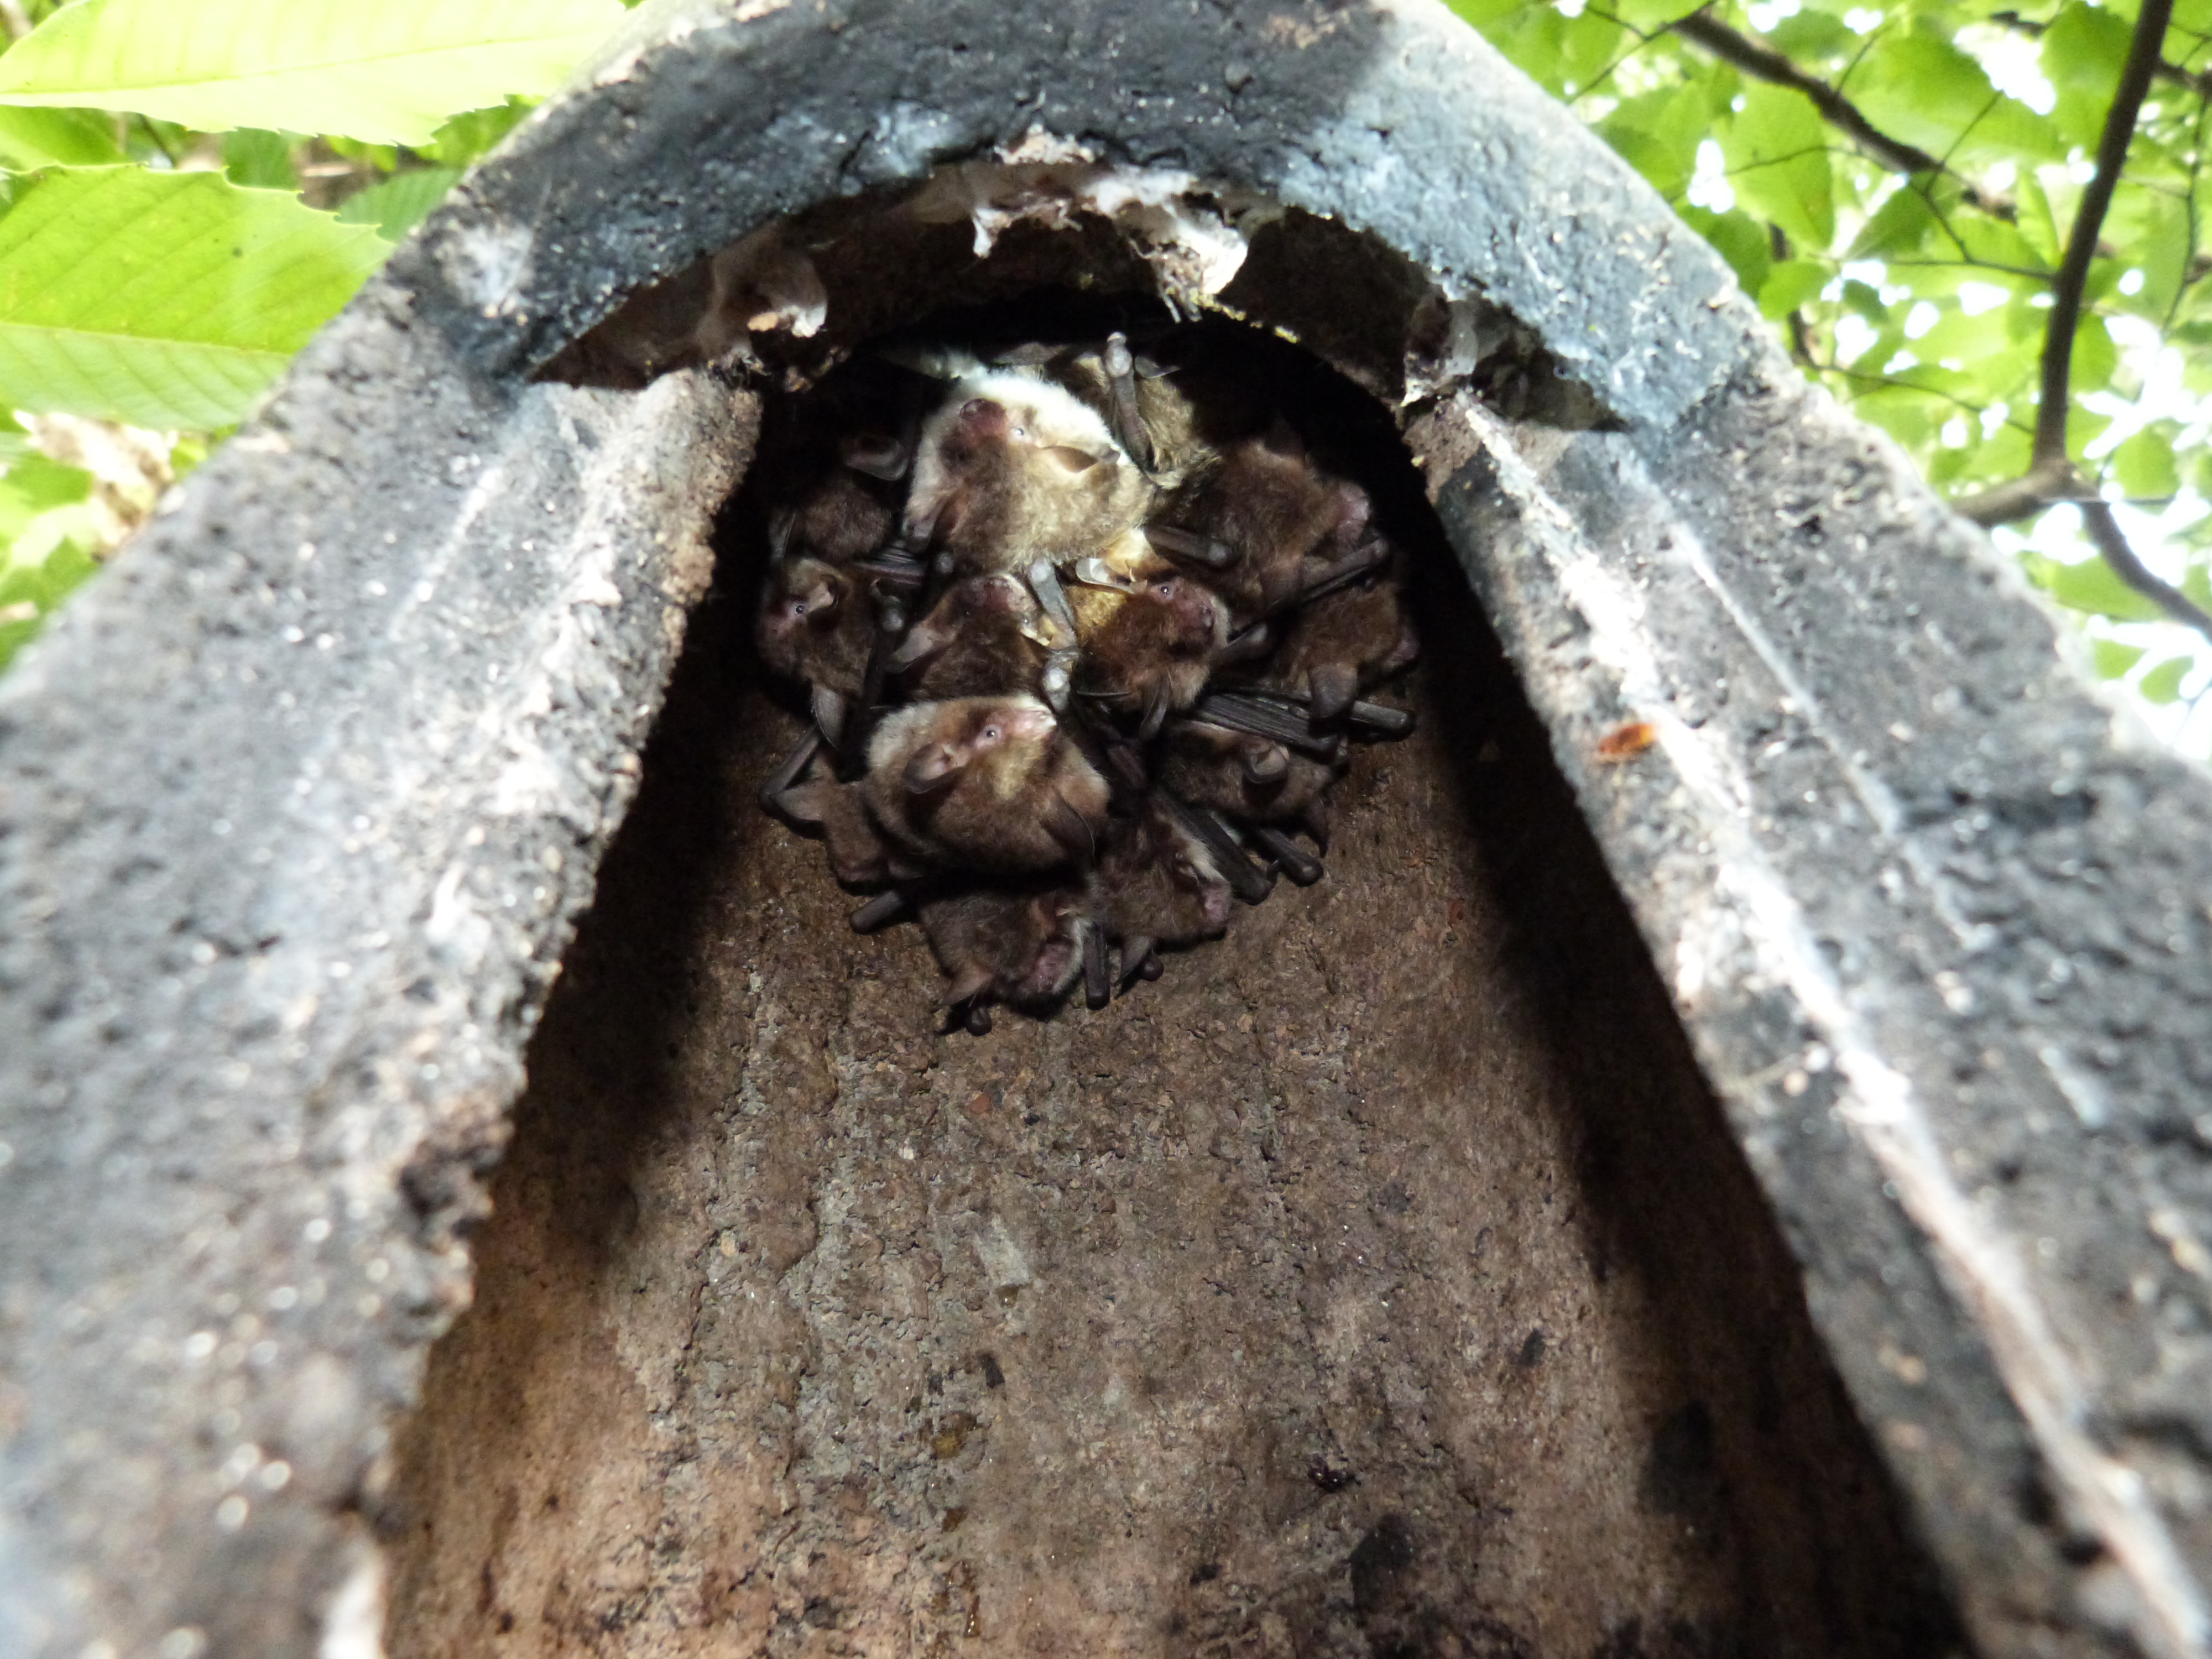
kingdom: Animalia
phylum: Chordata
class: Mammalia
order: Chiroptera
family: Vespertilionidae
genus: Myotis
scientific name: Myotis nattereri
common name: Natterer's bat
